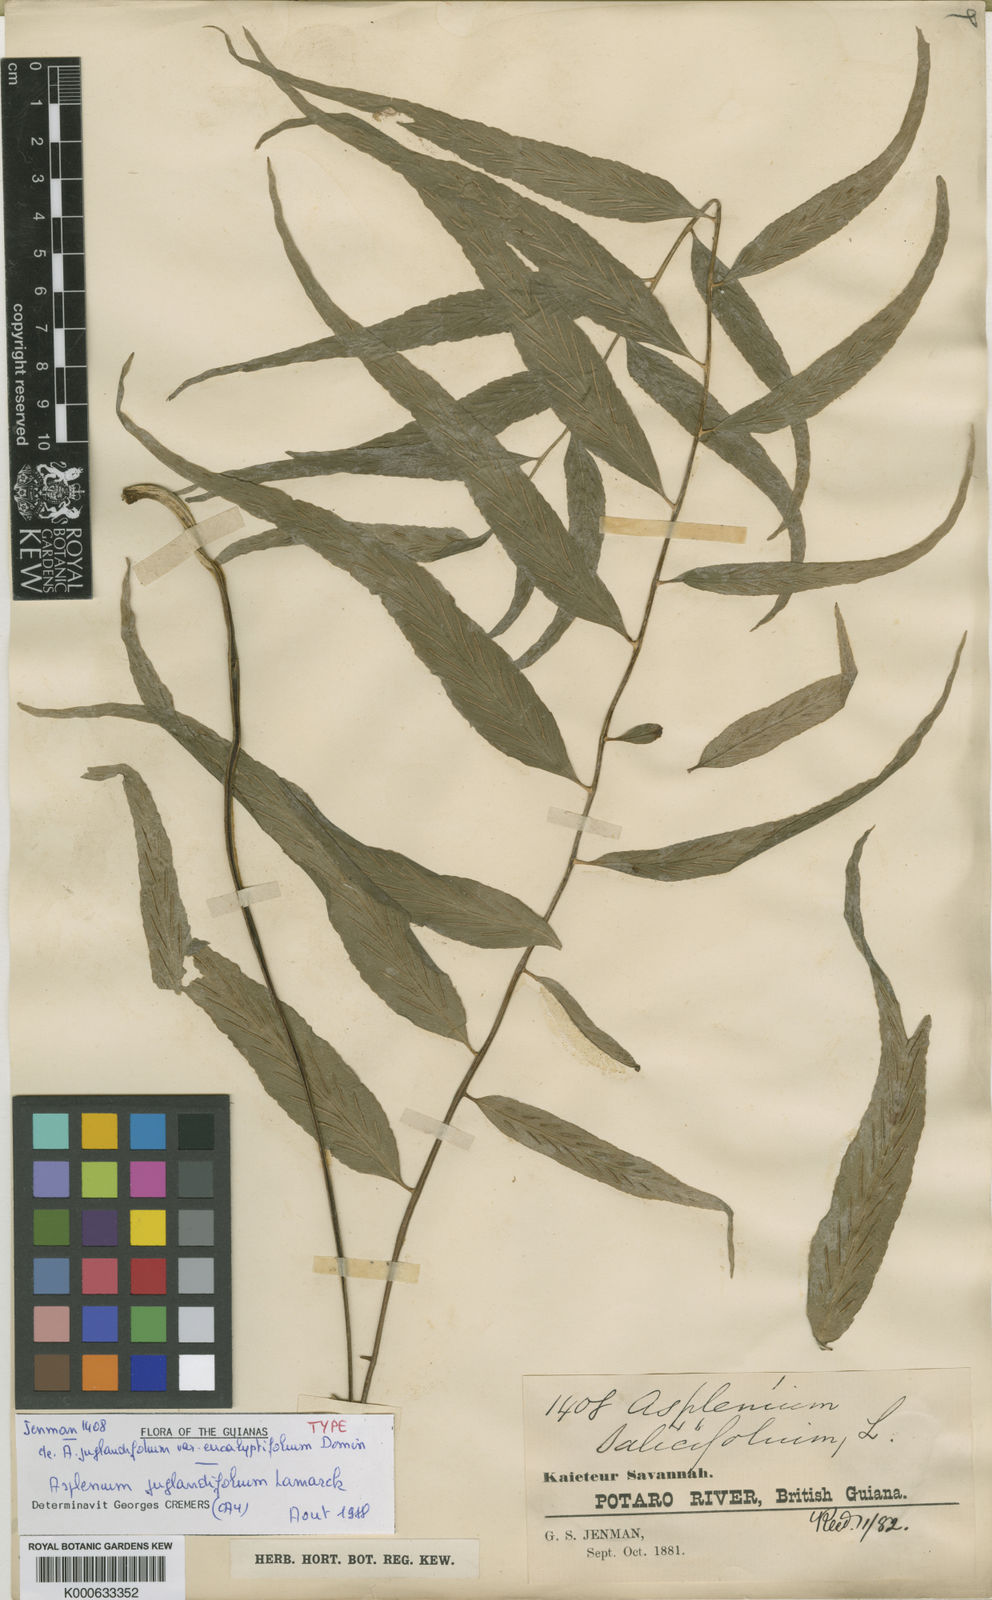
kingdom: Plantae
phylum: Tracheophyta
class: Polypodiopsida
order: Polypodiales
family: Aspleniaceae
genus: Asplenium
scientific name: Asplenium juglandifolium
